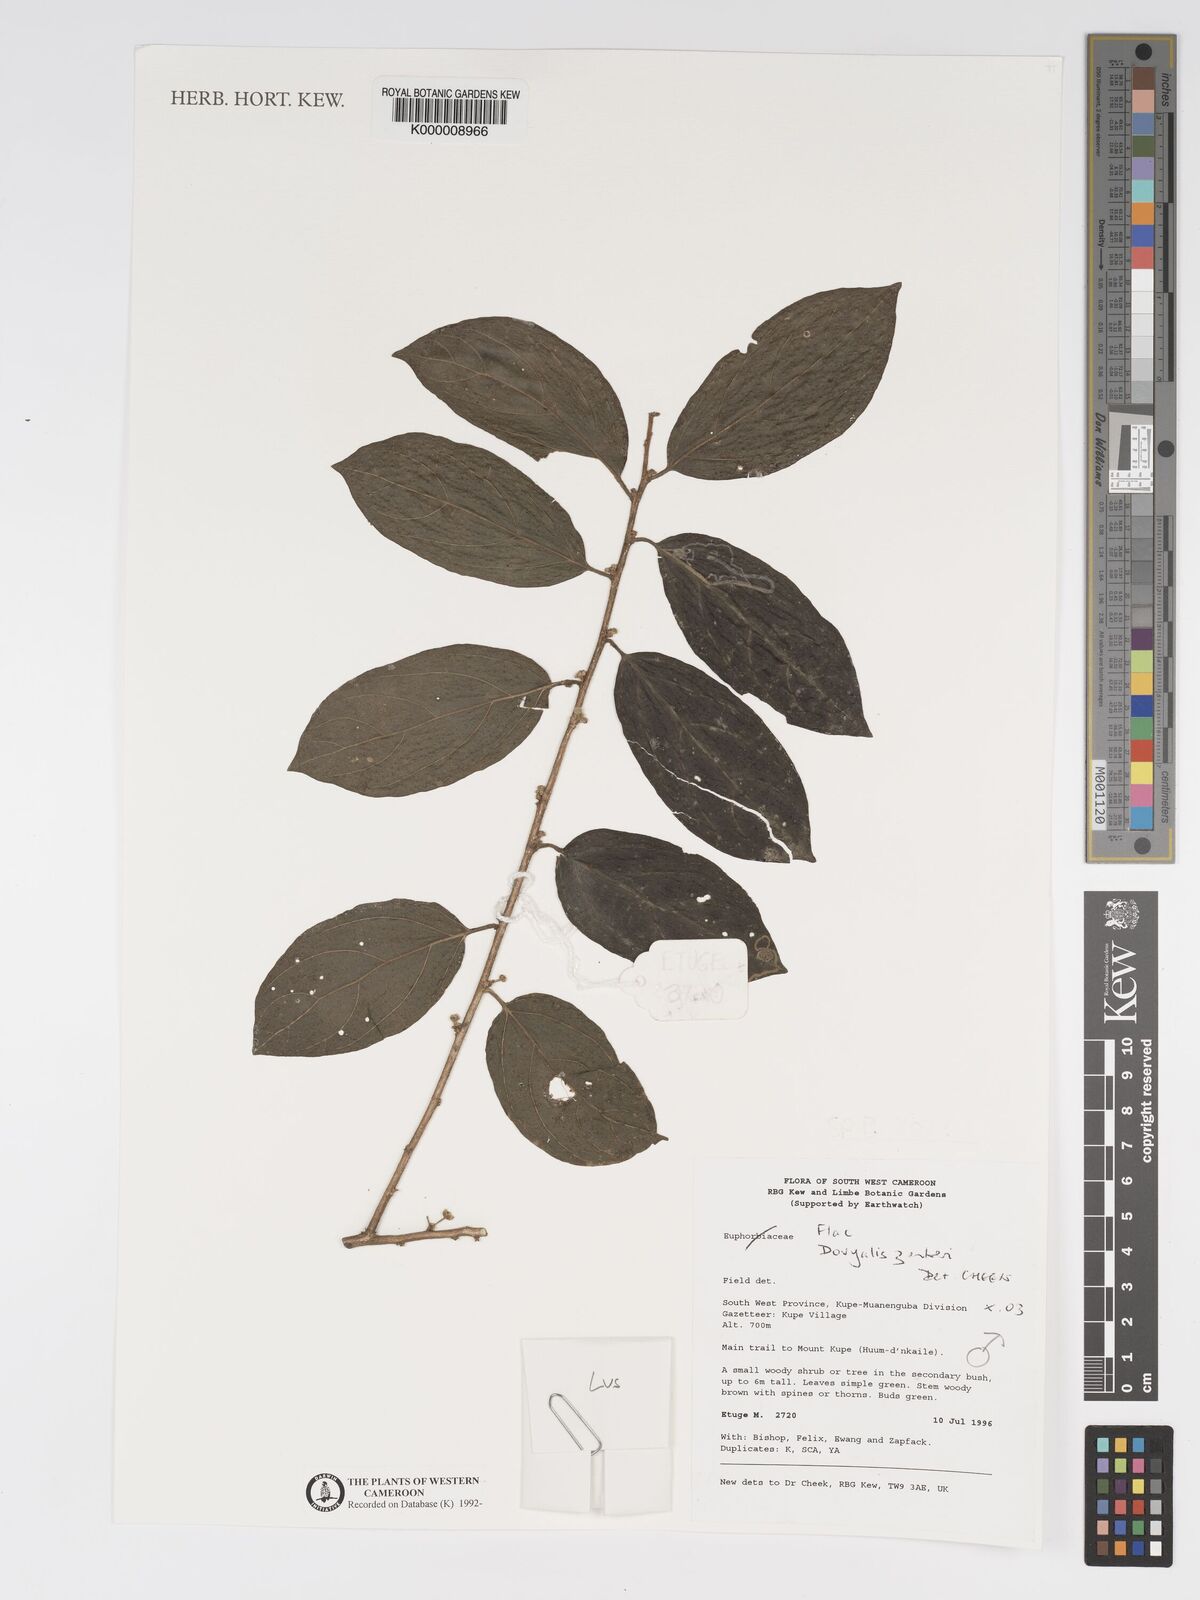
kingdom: Plantae
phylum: Tracheophyta
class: Magnoliopsida
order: Malpighiales
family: Salicaceae
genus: Dovyalis
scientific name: Dovyalis zenkeri
